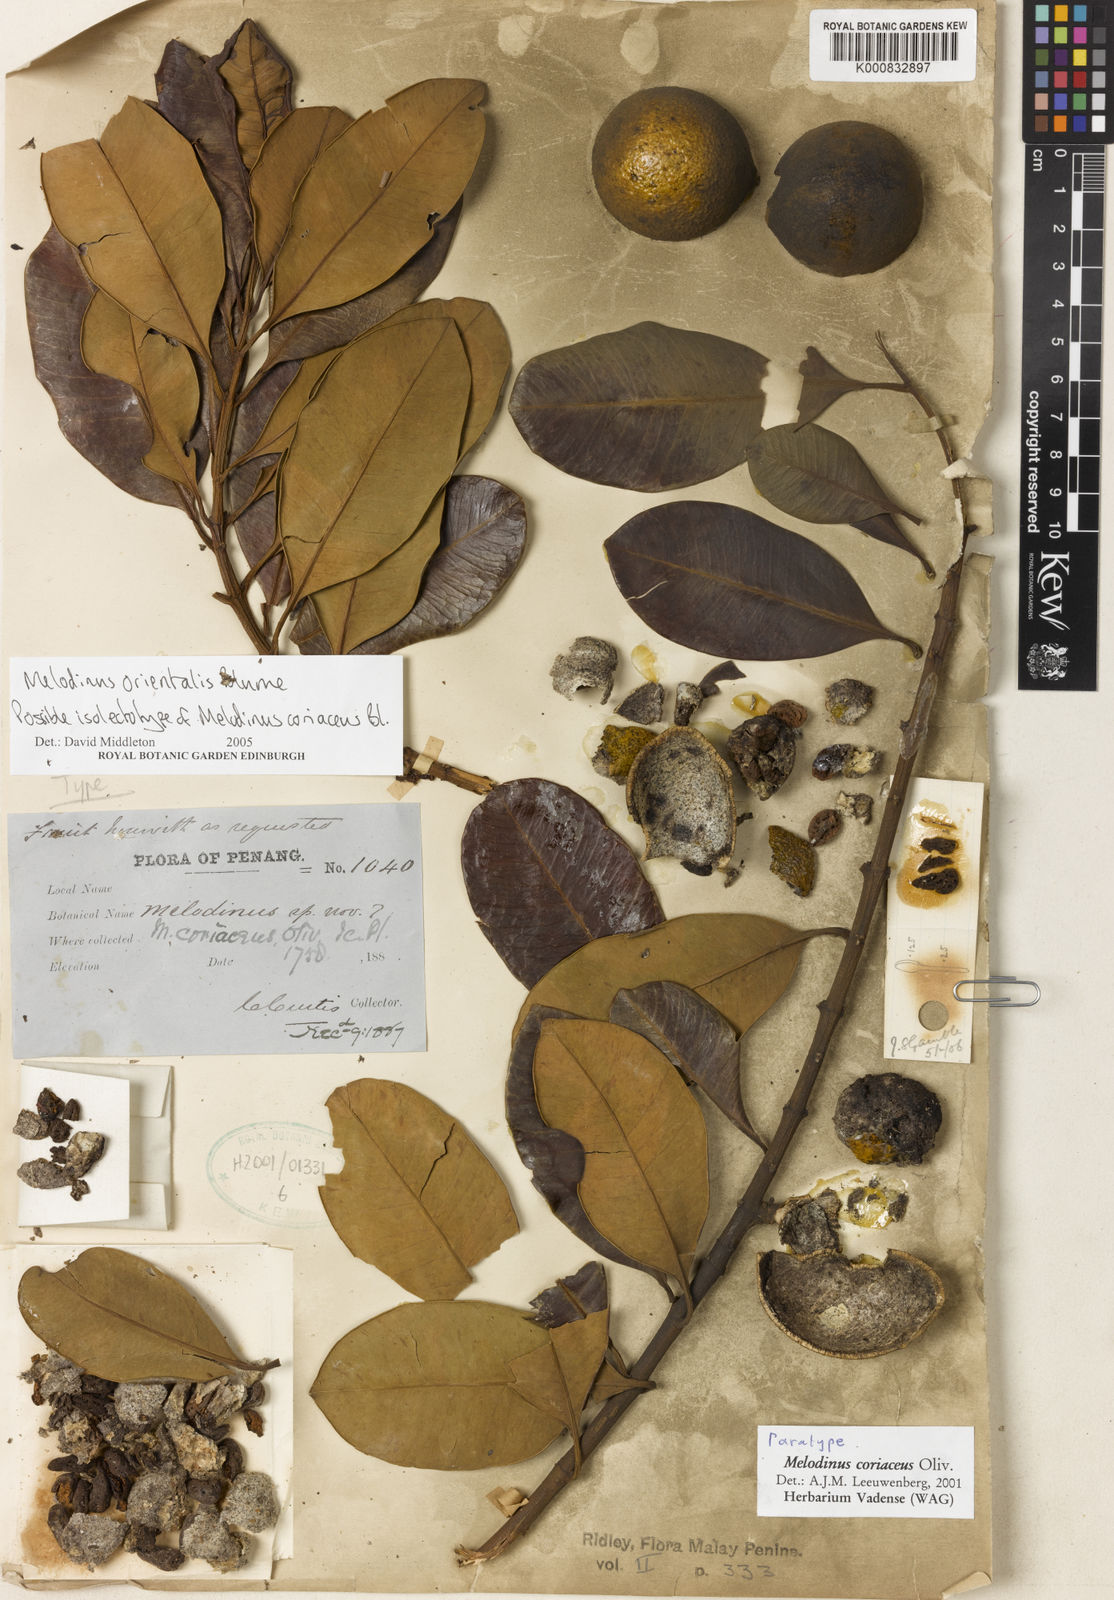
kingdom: Plantae
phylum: Tracheophyta
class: Magnoliopsida
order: Gentianales
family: Apocynaceae
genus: Melodinus
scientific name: Melodinus orientalis
